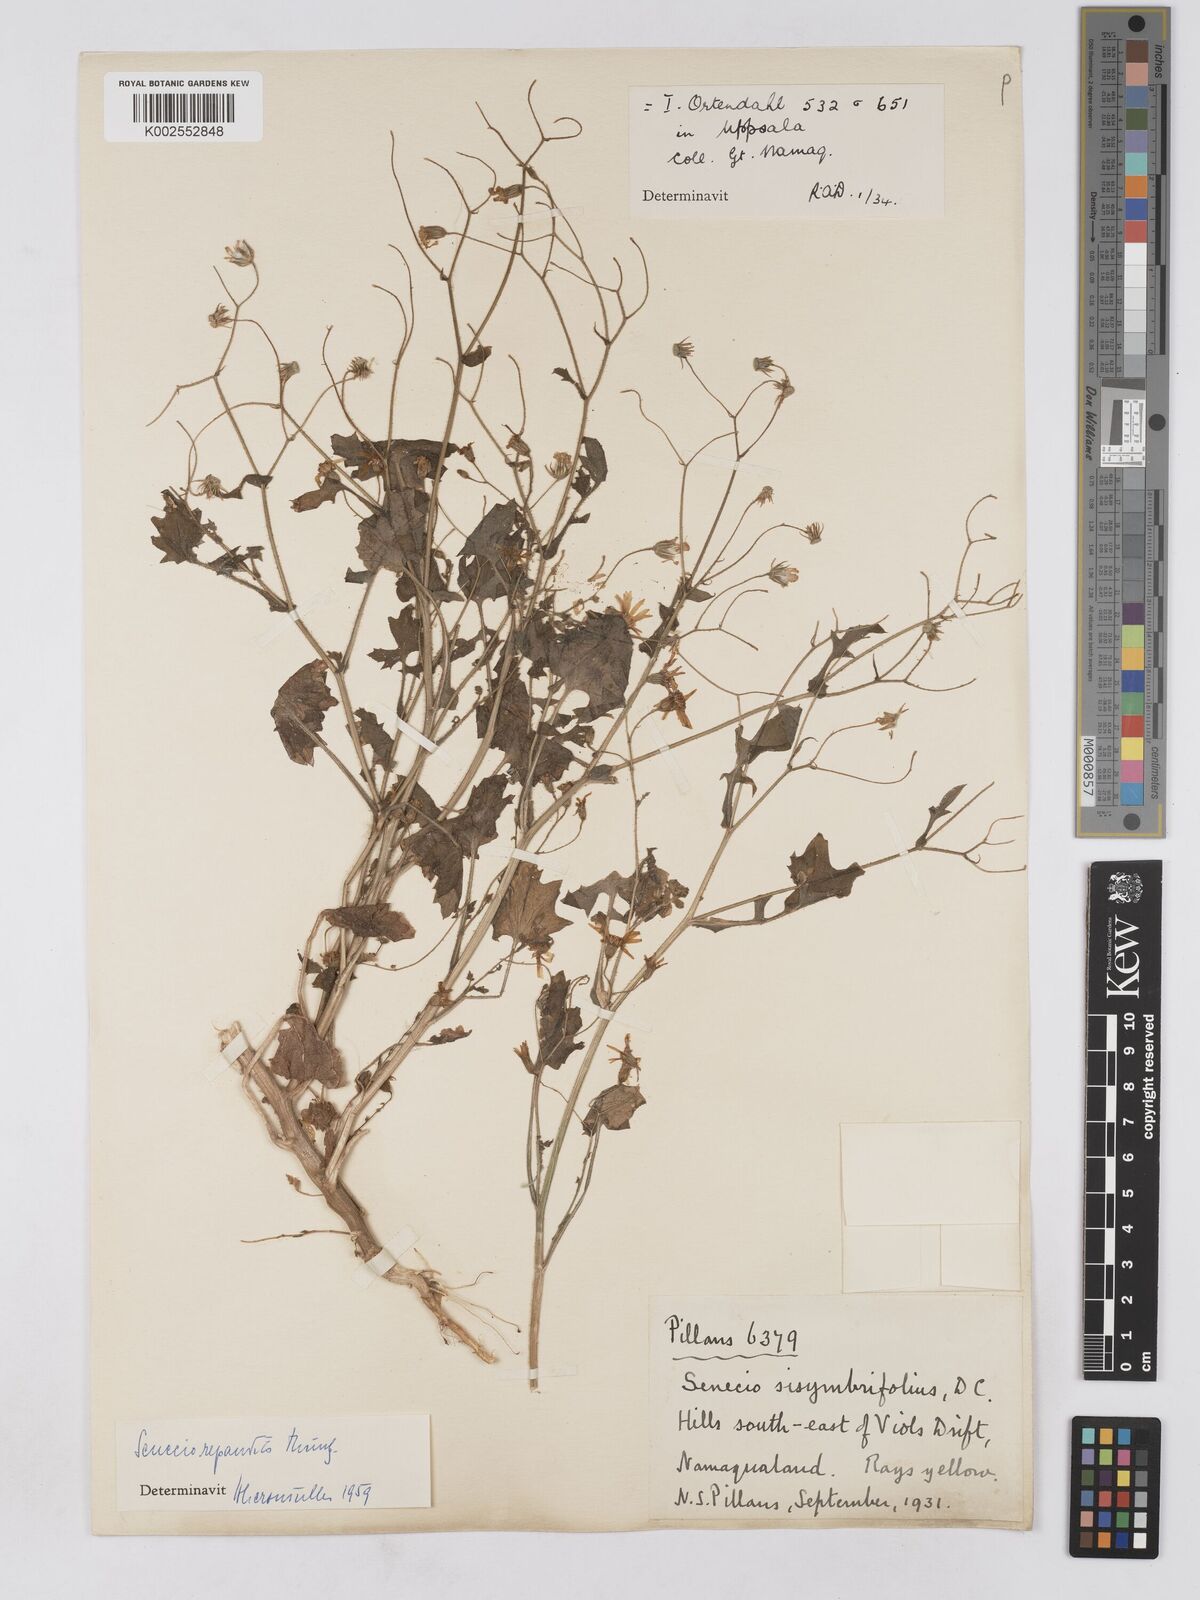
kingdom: Plantae
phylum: Tracheophyta
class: Magnoliopsida
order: Asterales
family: Asteraceae
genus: Senecio
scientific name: Senecio repandus
